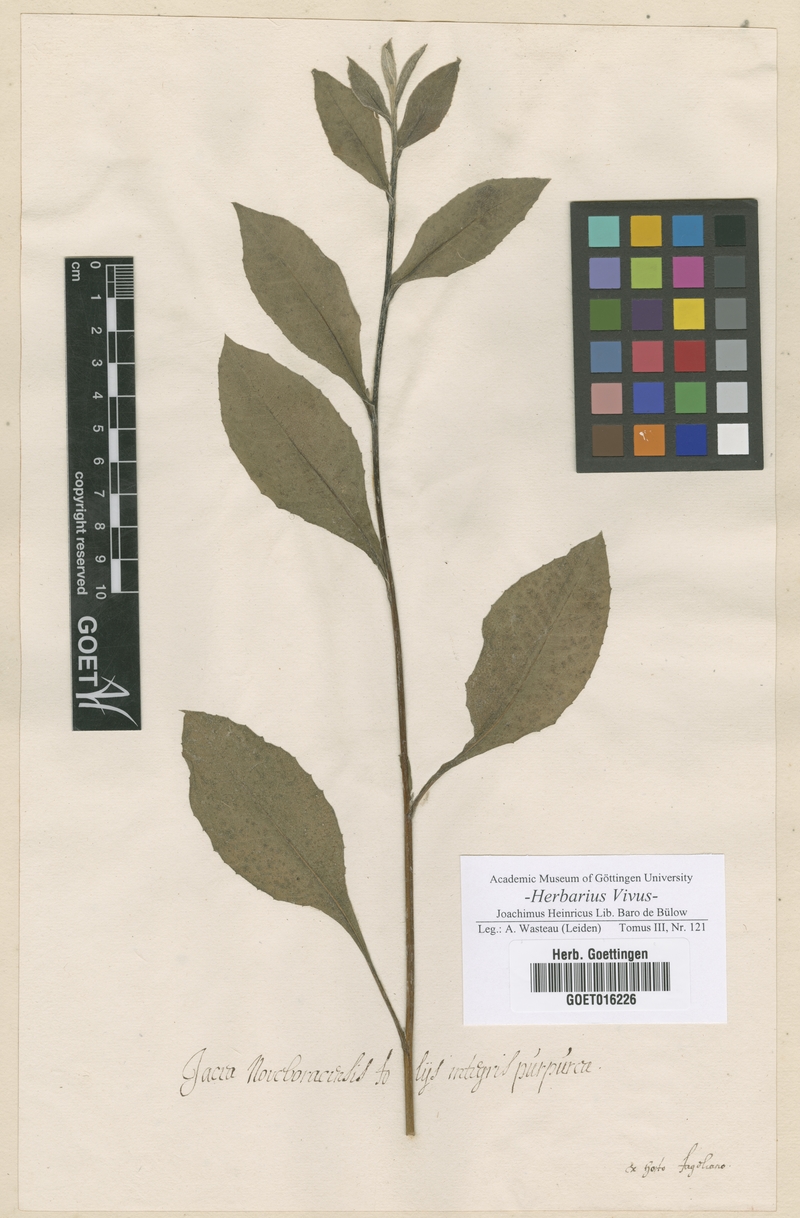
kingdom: Plantae
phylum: Tracheophyta
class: Magnoliopsida
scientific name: Magnoliopsida
